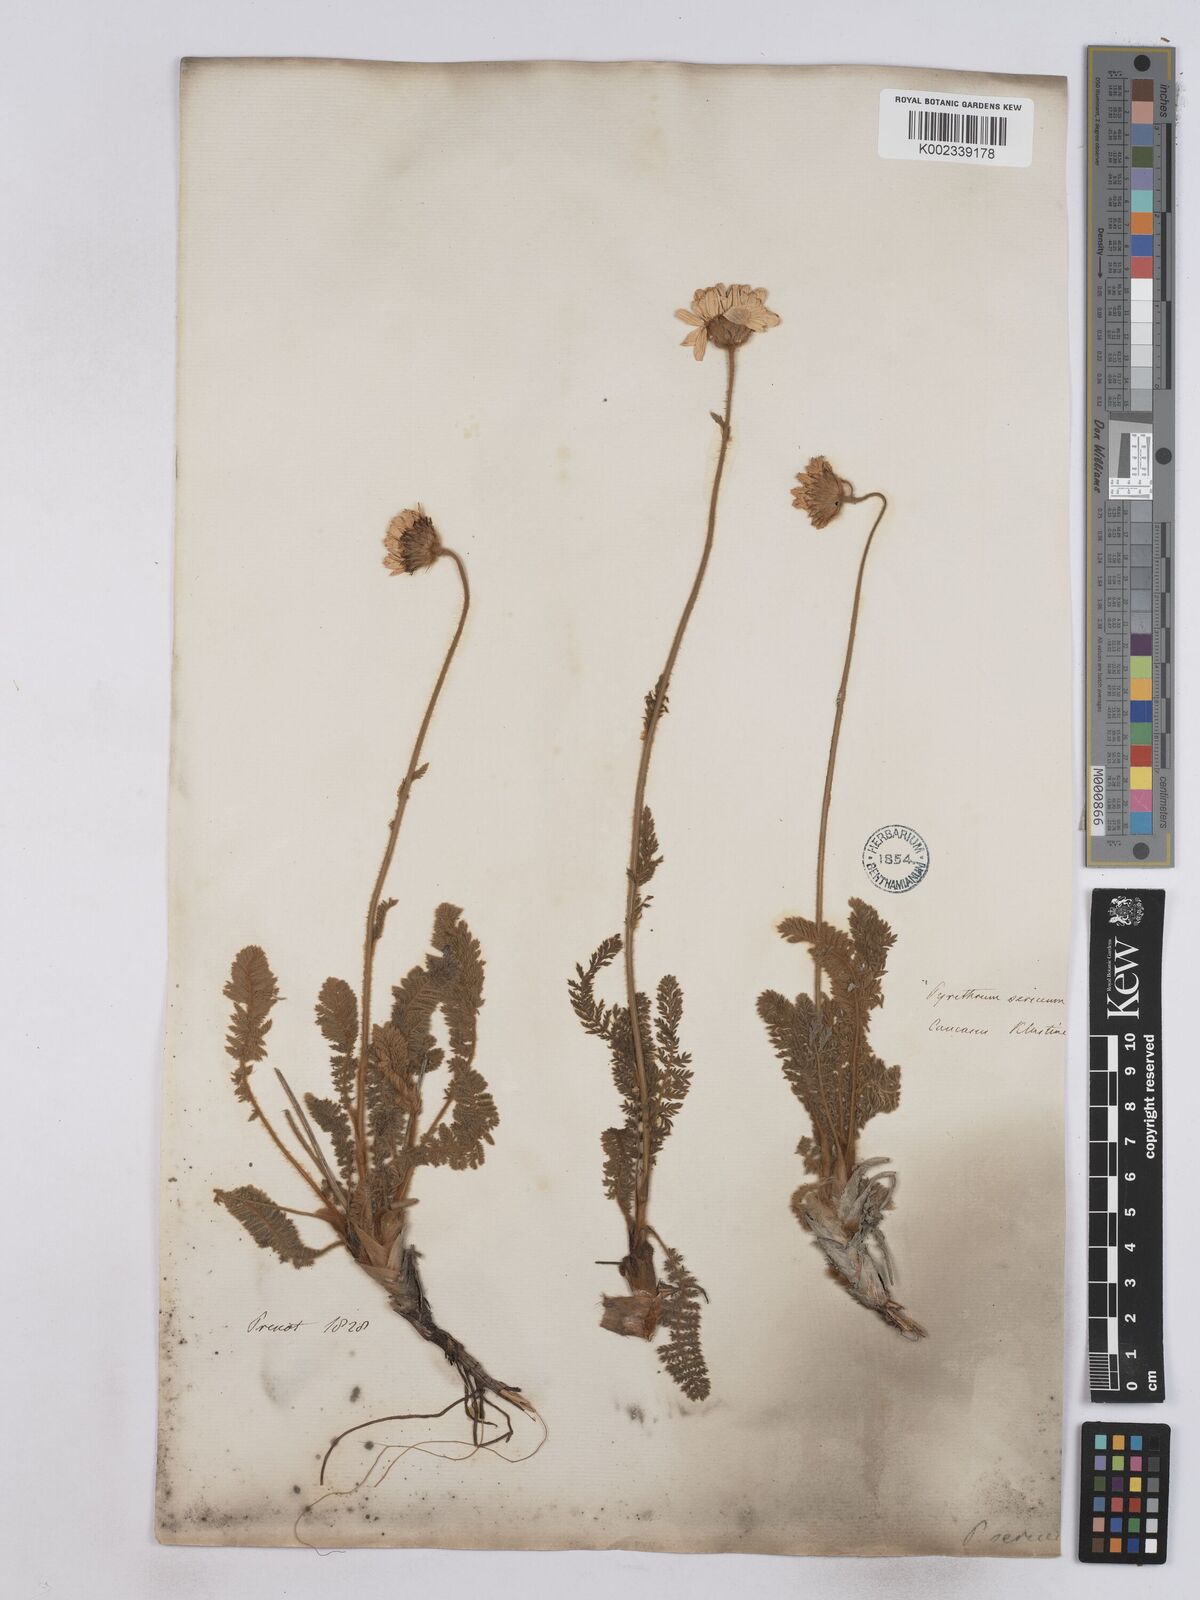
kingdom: Plantae
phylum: Tracheophyta
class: Magnoliopsida
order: Asterales
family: Asteraceae
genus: Tanacetum
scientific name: Tanacetum sericeum
